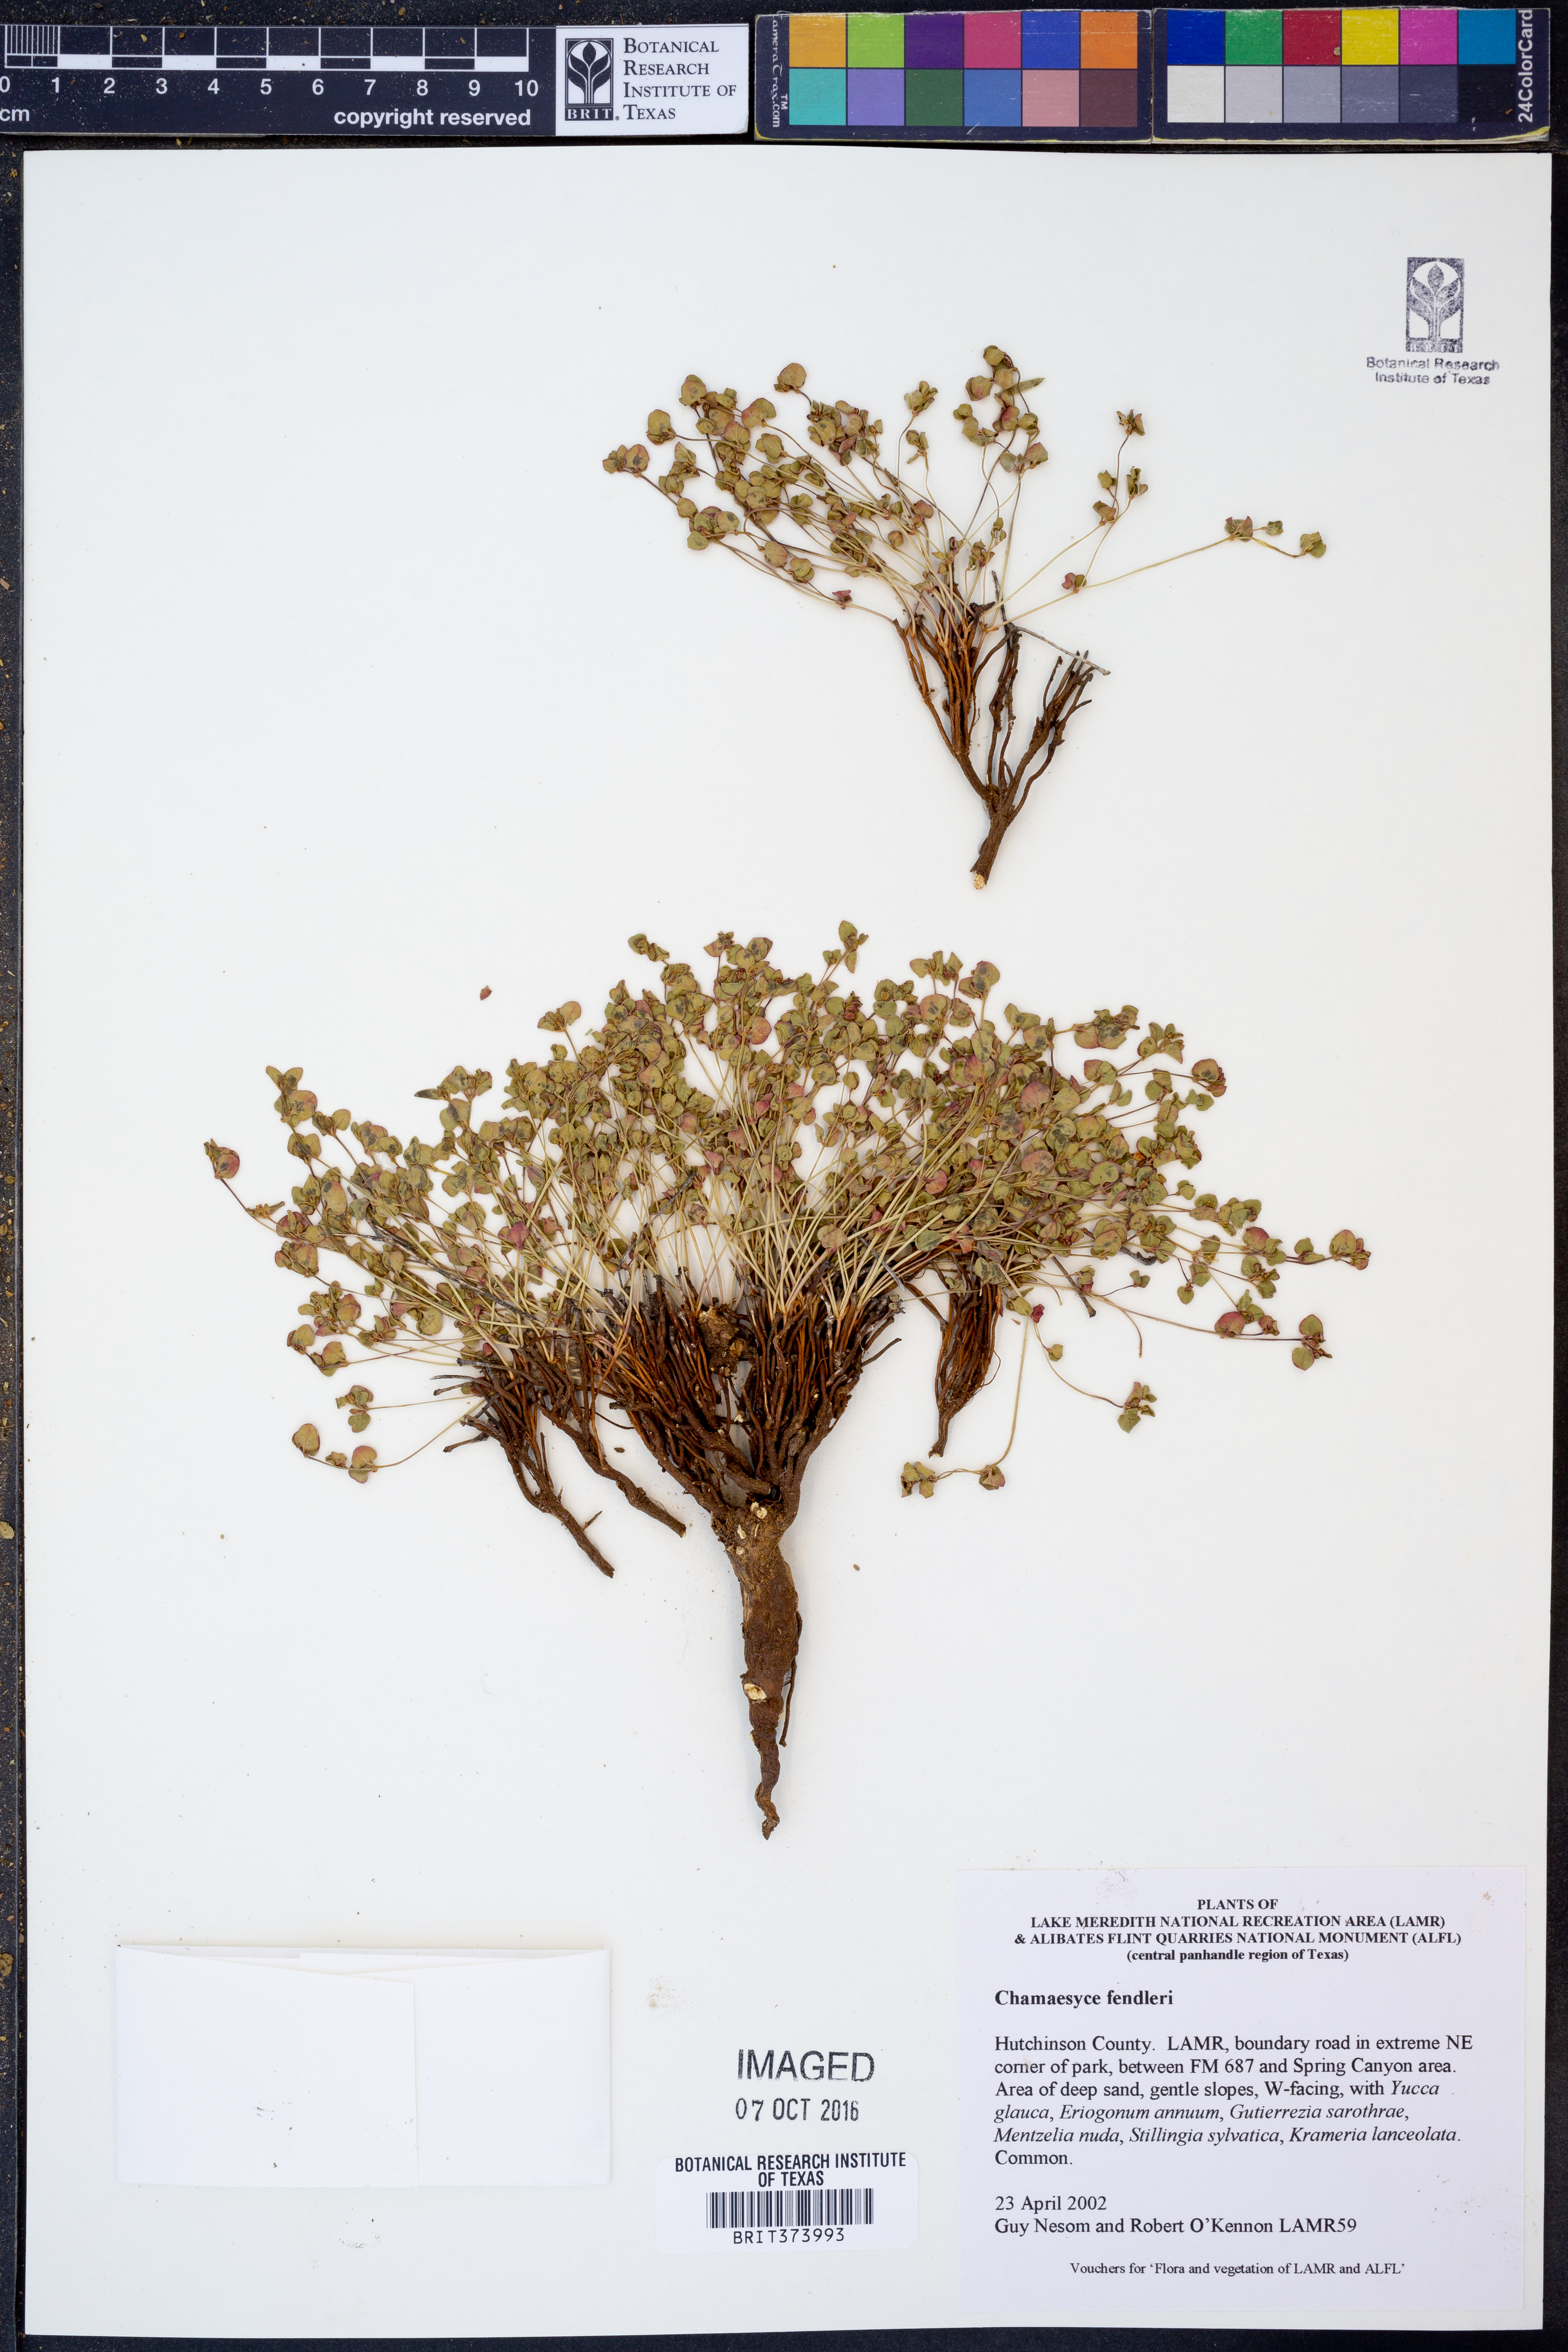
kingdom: Plantae
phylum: Tracheophyta
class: Magnoliopsida
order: Malpighiales
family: Euphorbiaceae
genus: Euphorbia
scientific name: Euphorbia fendleri
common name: Fendler's euphorbia
